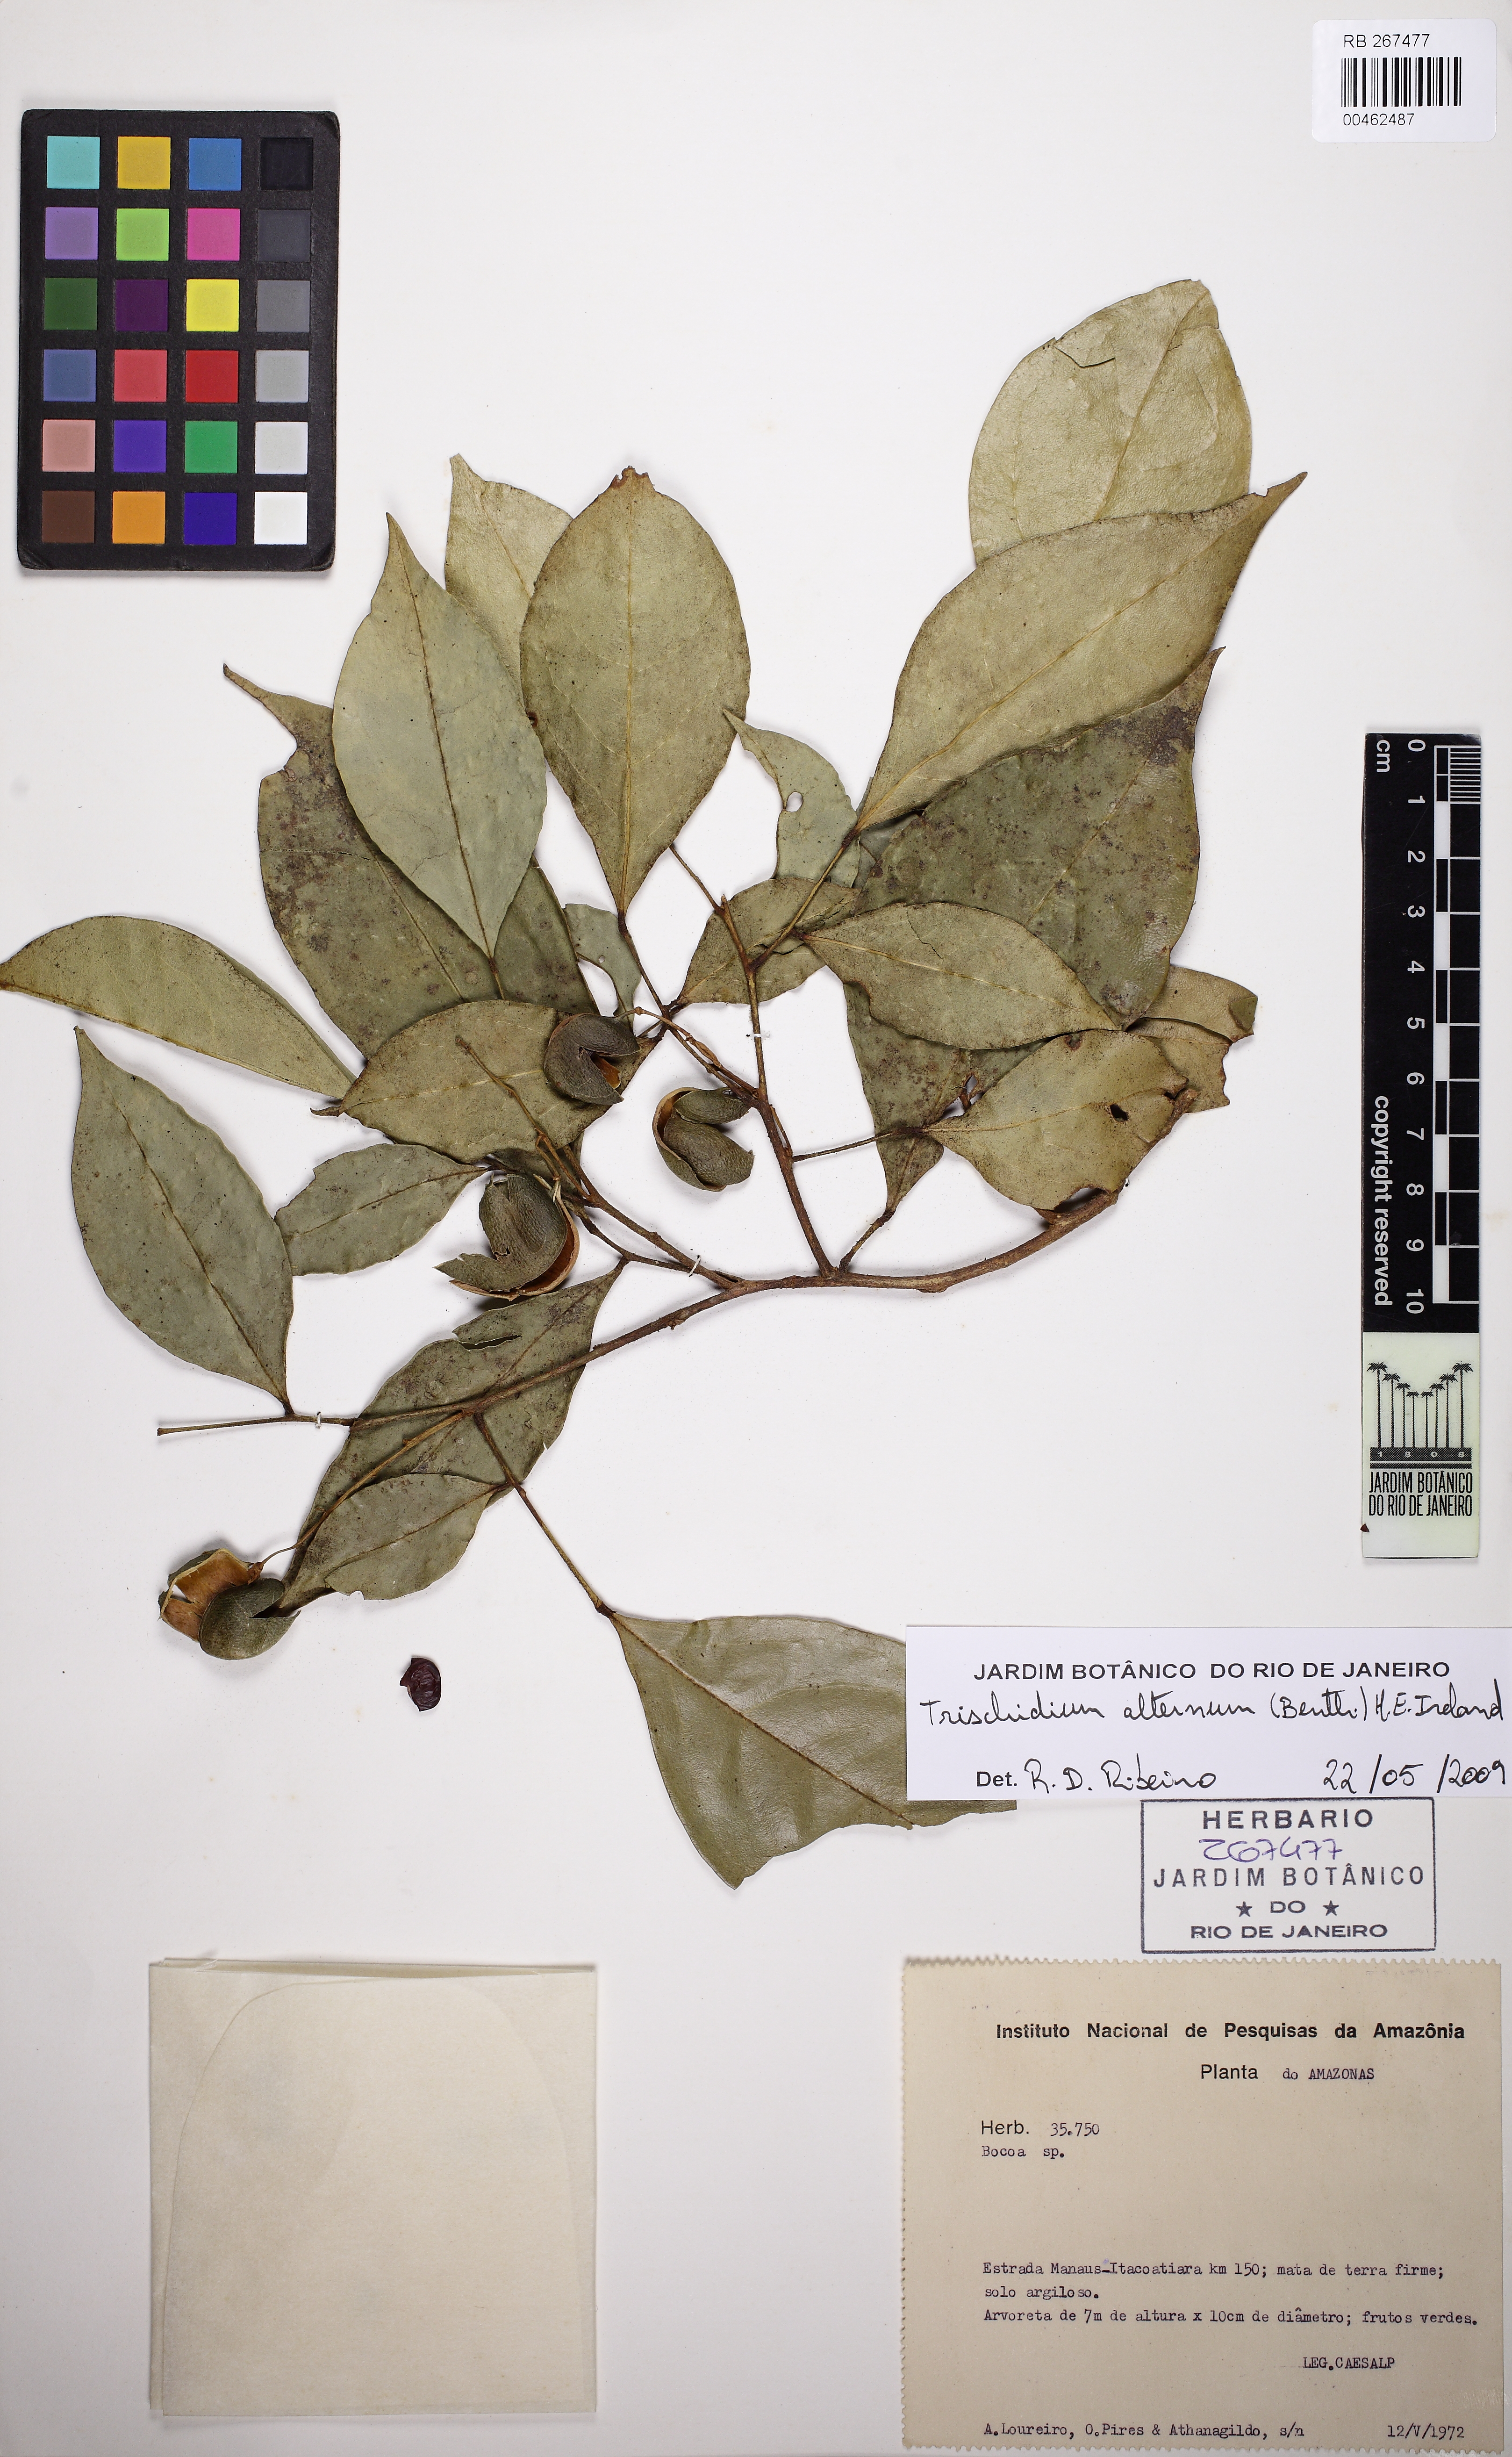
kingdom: Plantae
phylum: Tracheophyta
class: Magnoliopsida
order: Fabales
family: Fabaceae
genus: Trischidium
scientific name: Trischidium alternum
